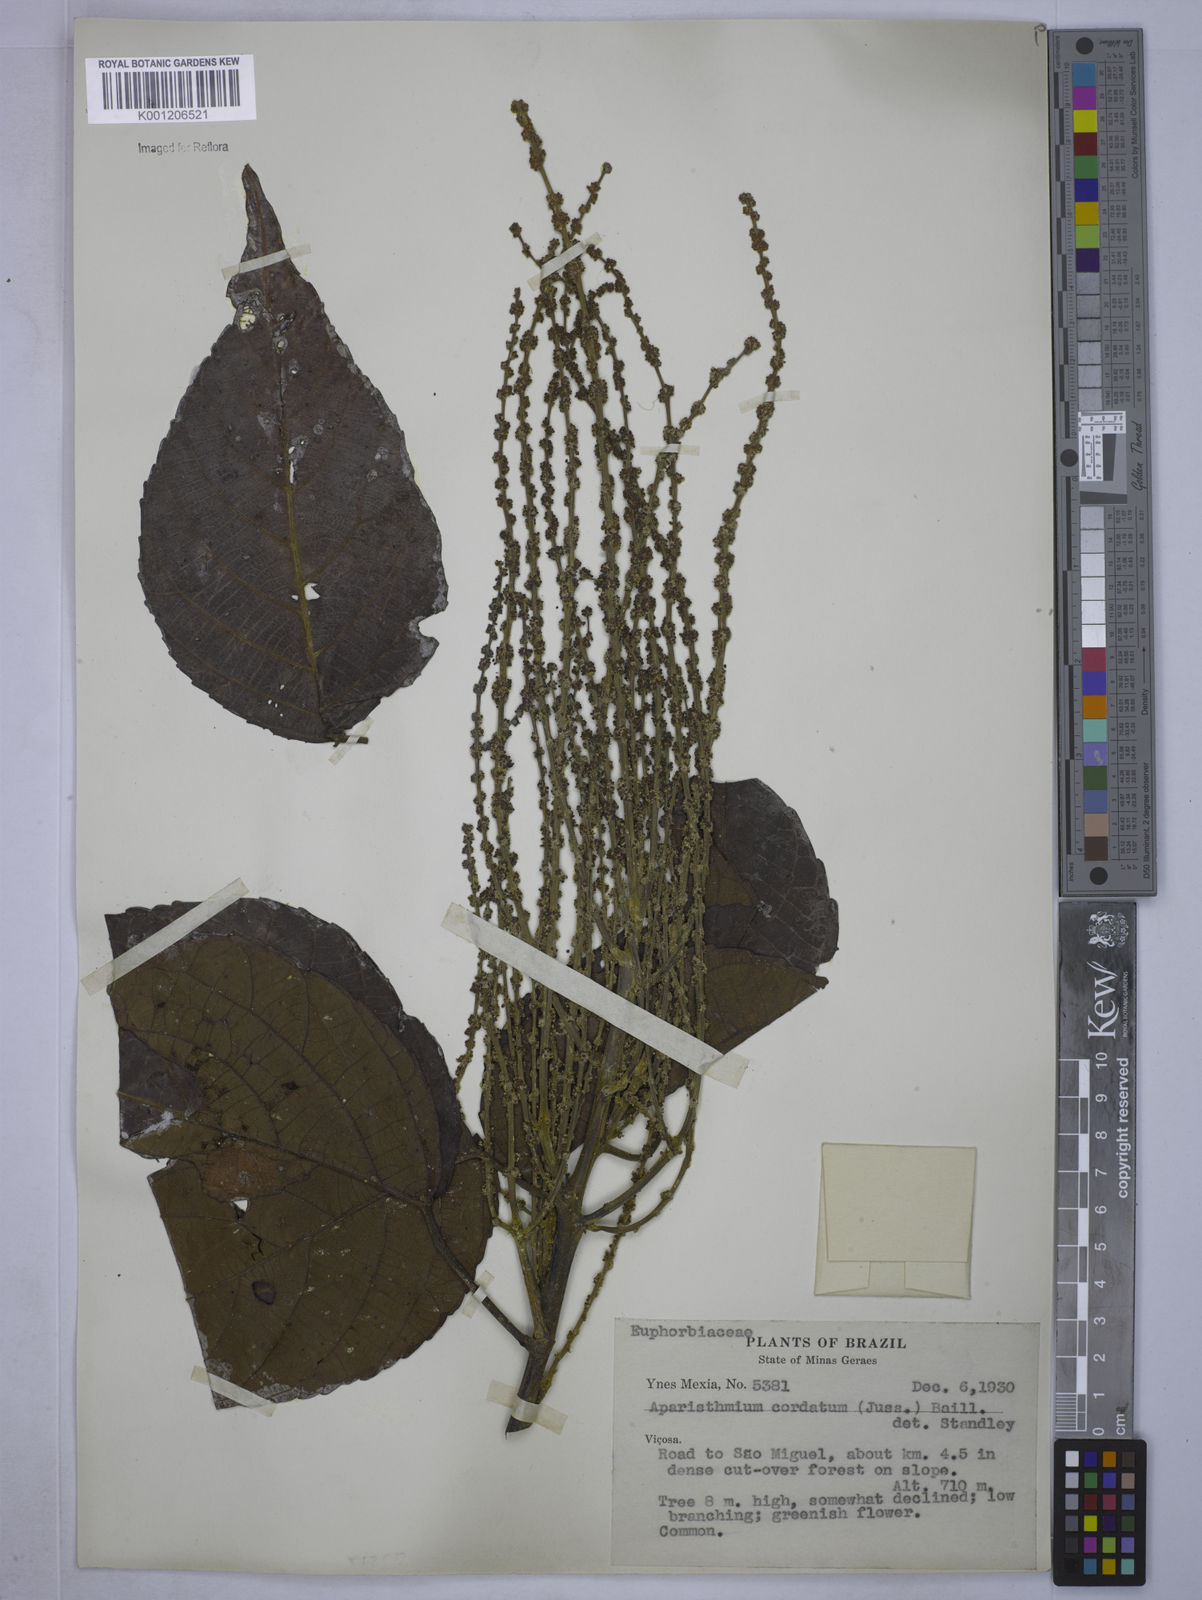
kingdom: Plantae
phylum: Tracheophyta
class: Magnoliopsida
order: Malpighiales
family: Euphorbiaceae
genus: Aparisthmium
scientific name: Aparisthmium cordatum
